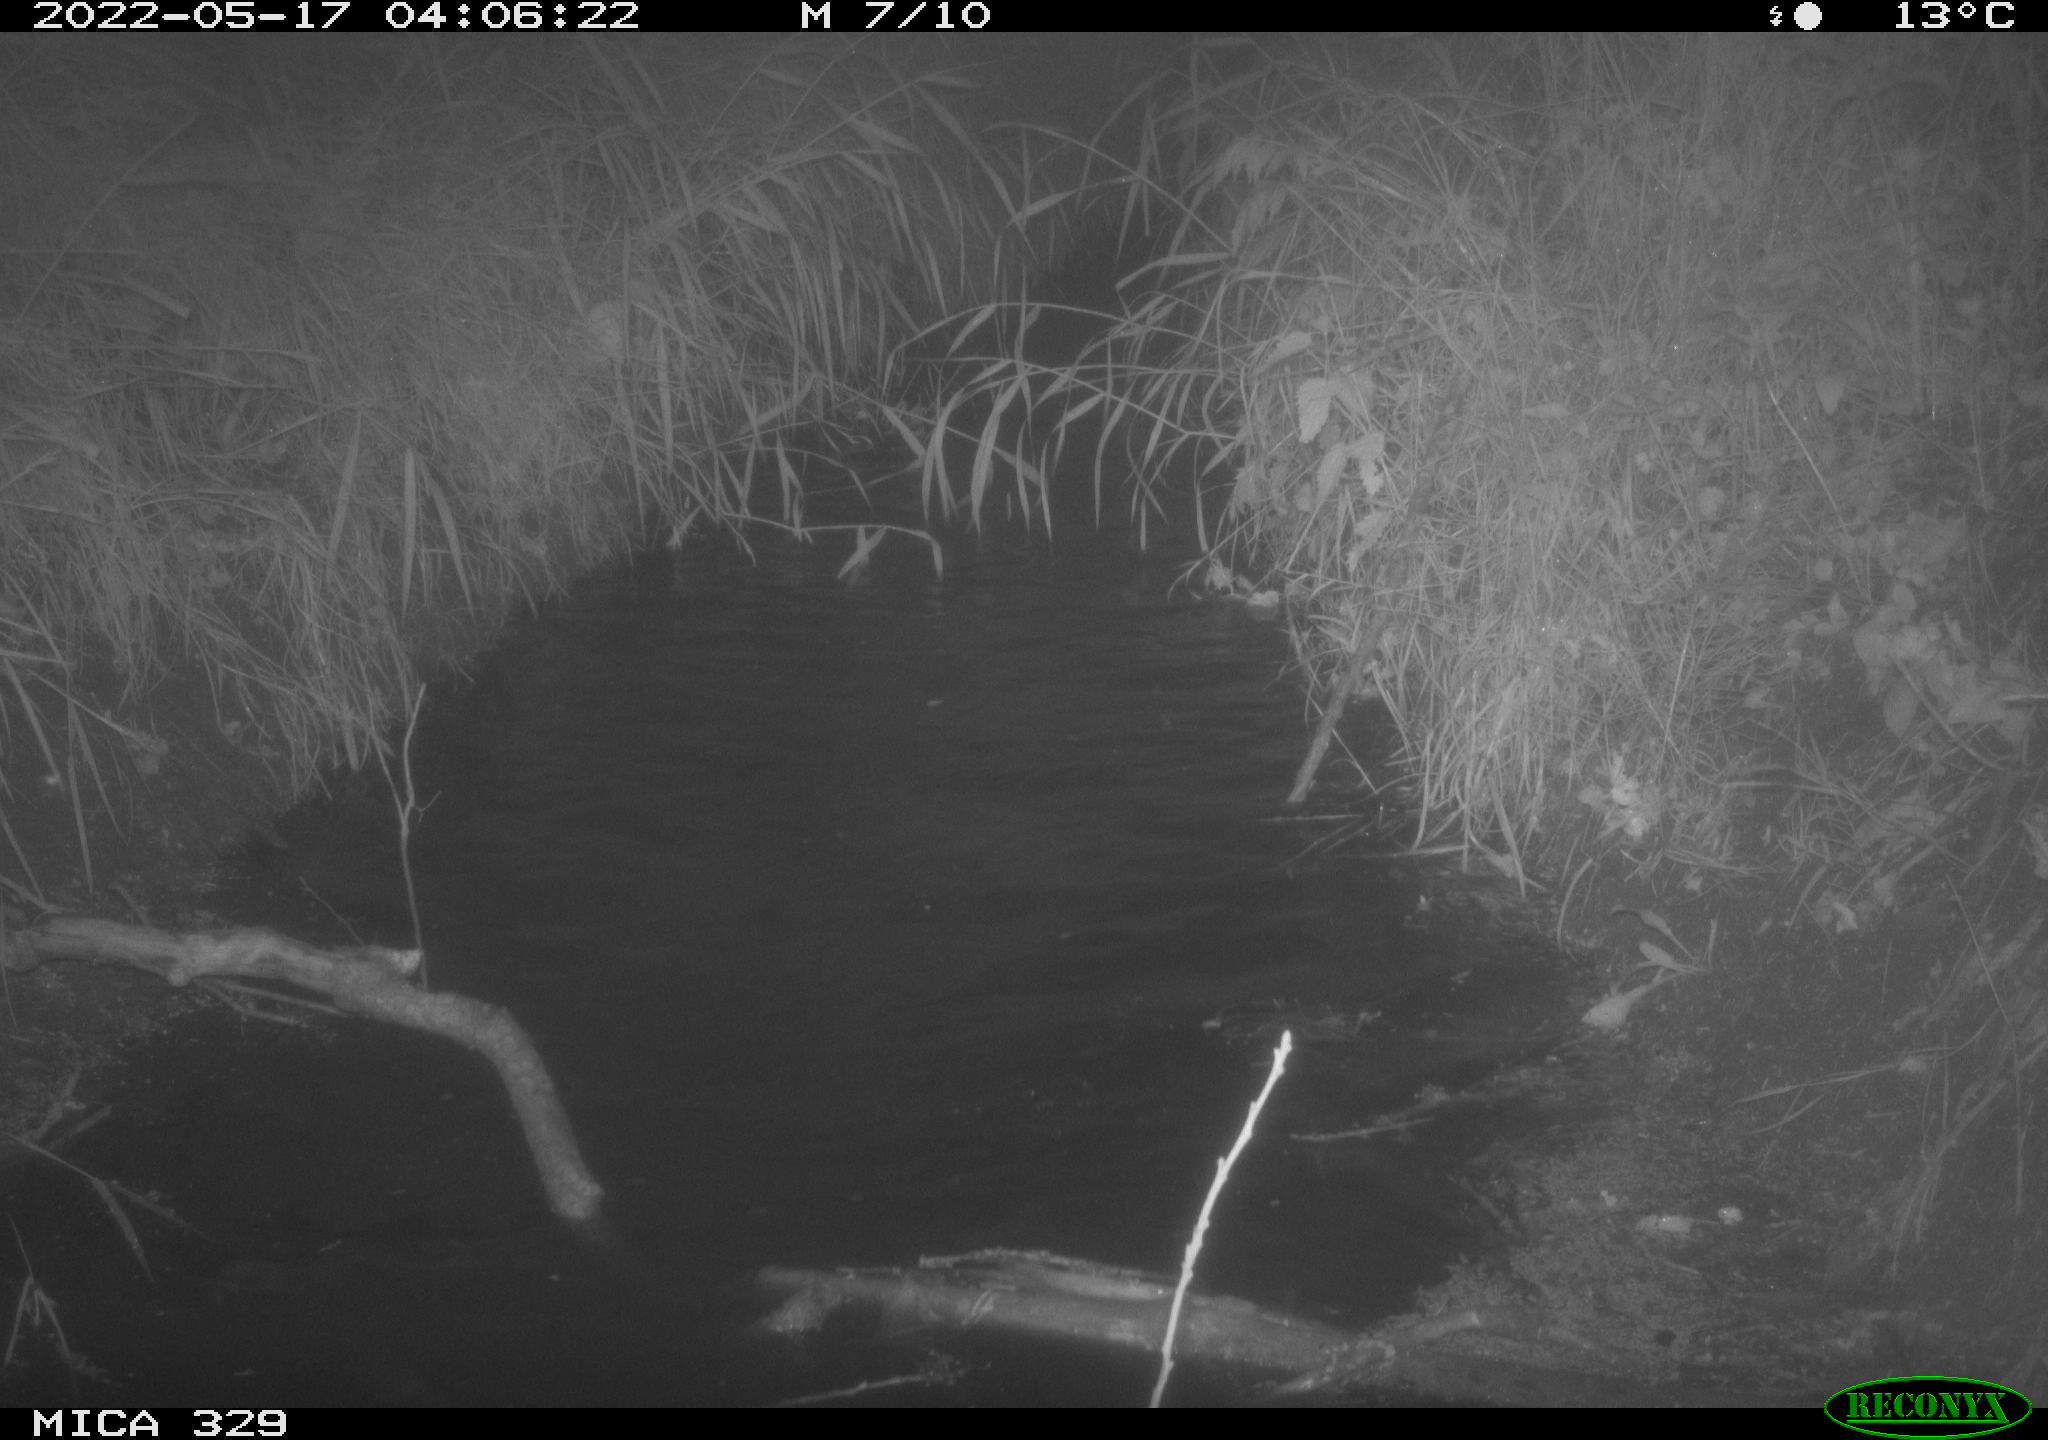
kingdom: Animalia
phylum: Chordata
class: Aves
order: Anseriformes
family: Anatidae
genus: Anas
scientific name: Anas platyrhynchos
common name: Mallard
